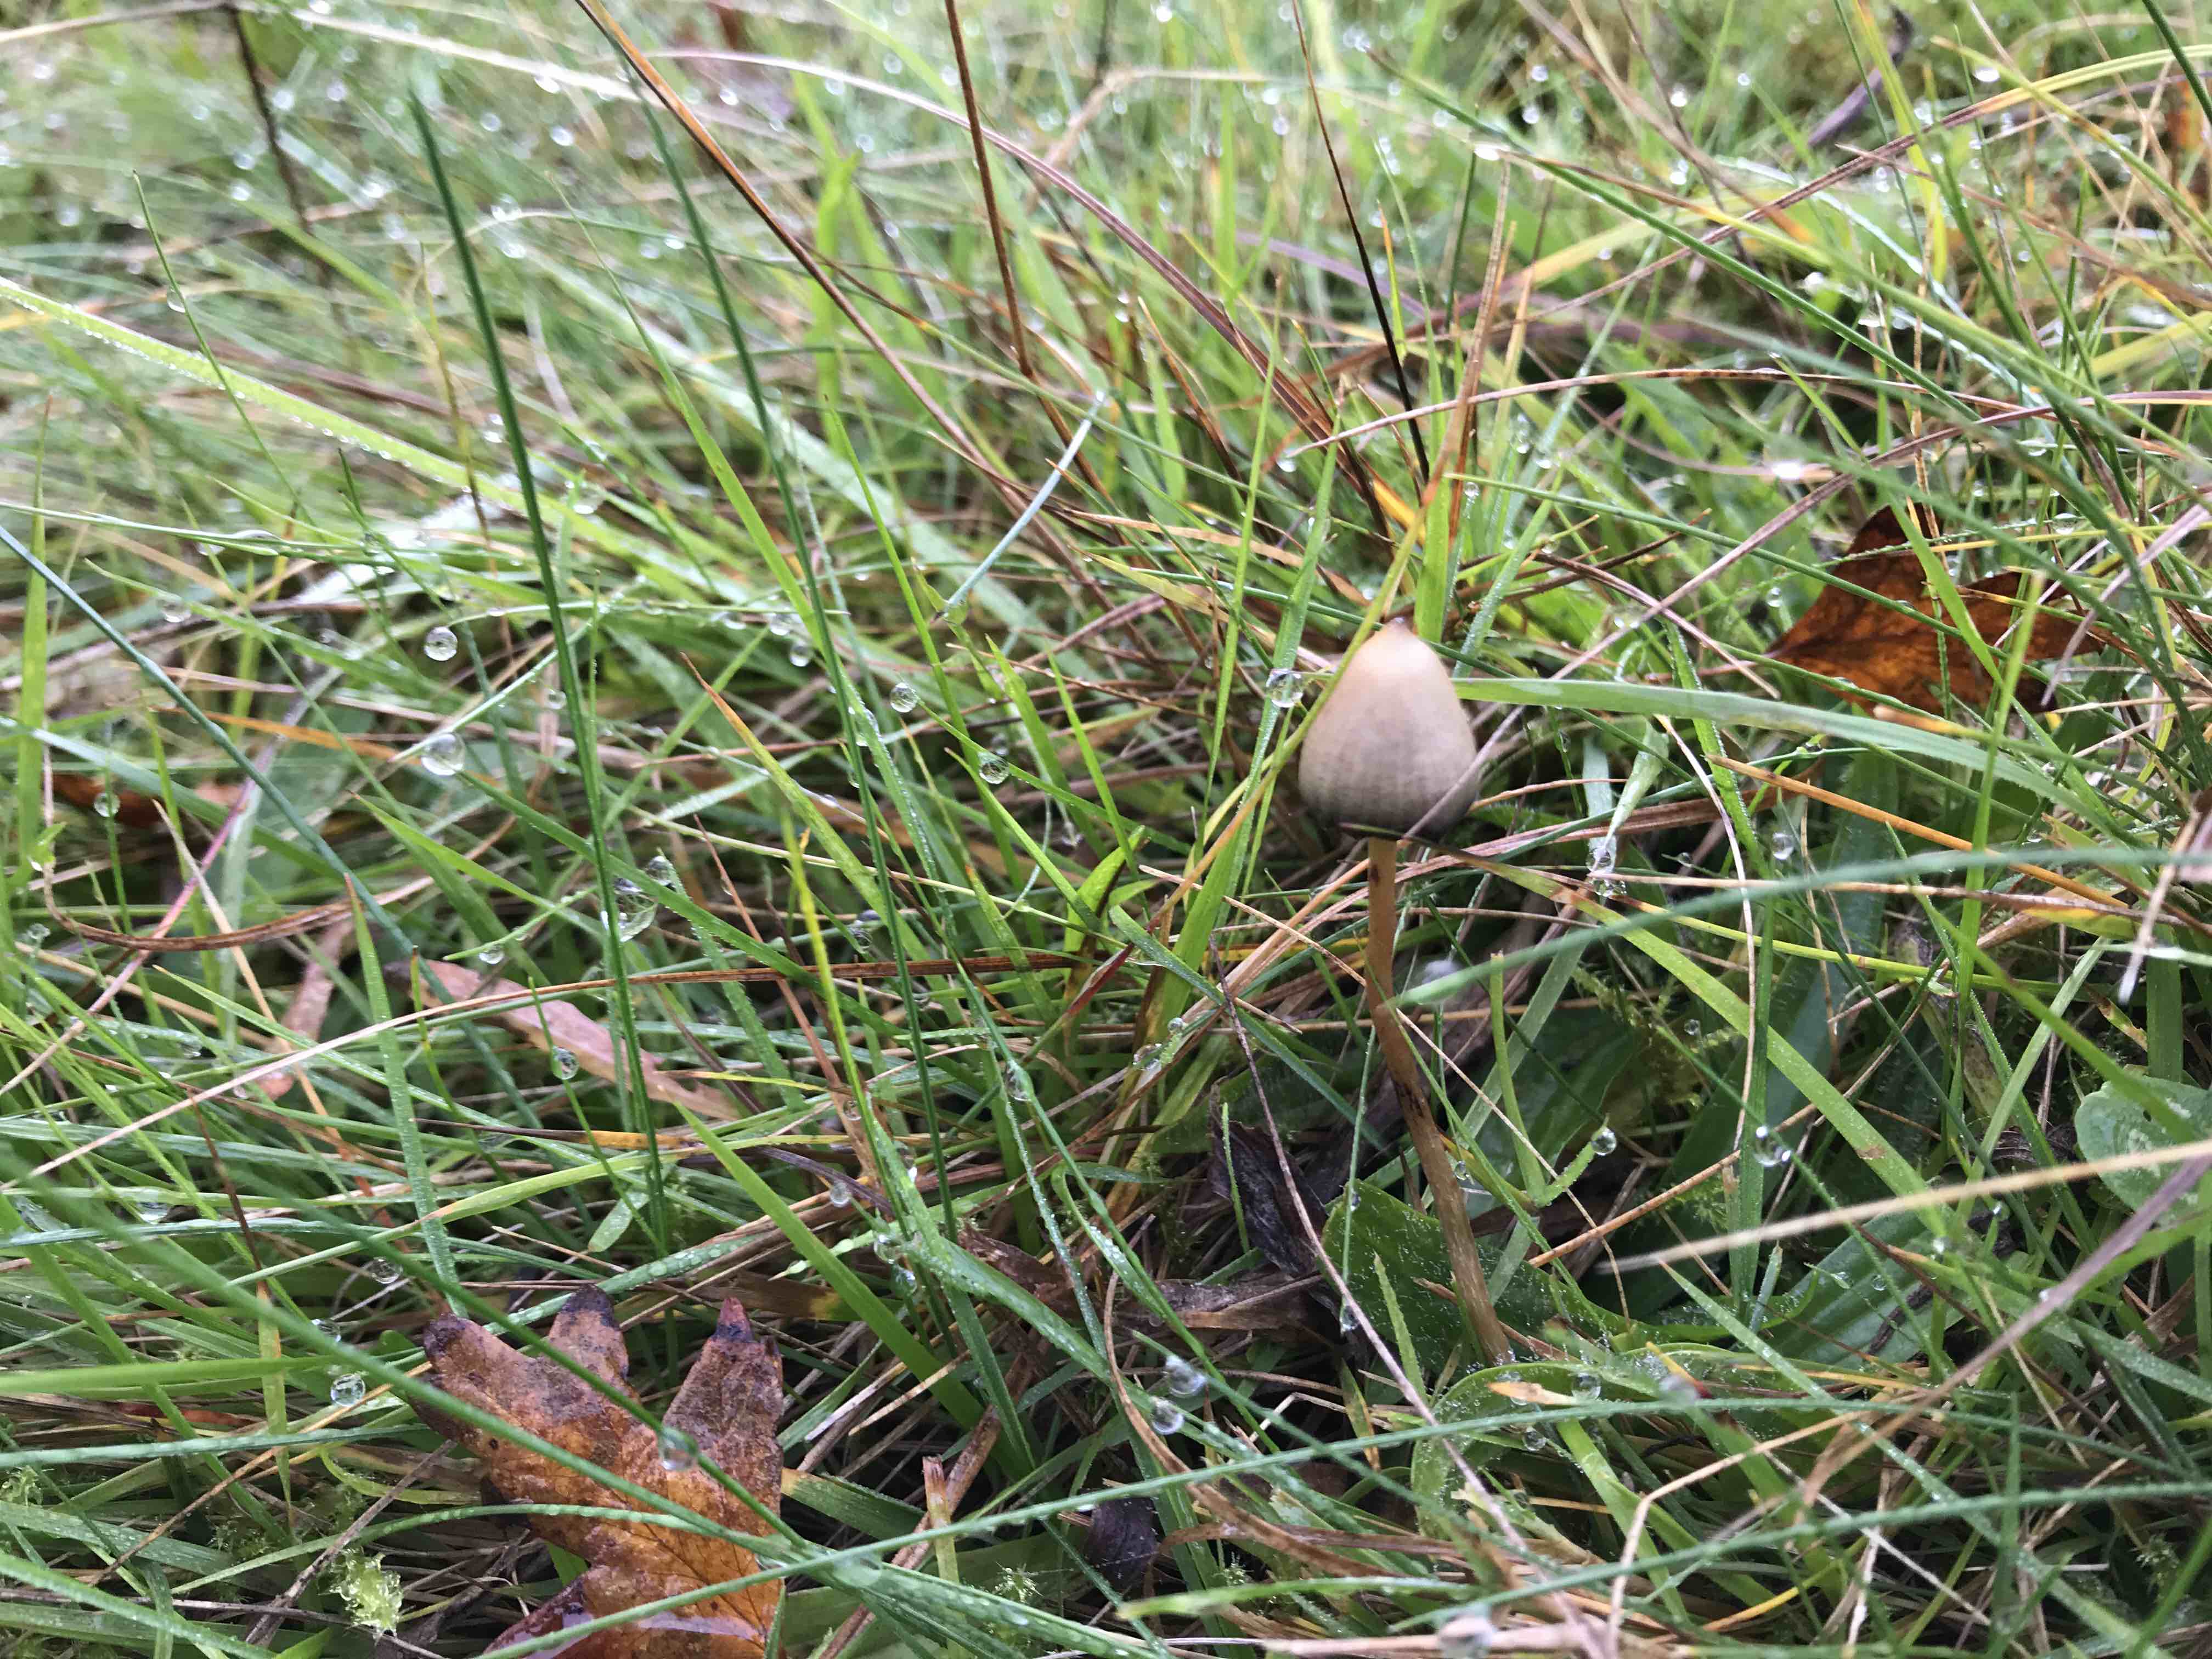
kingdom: Fungi
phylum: Basidiomycota
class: Agaricomycetes
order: Agaricales
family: Hymenogastraceae
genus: Psilocybe
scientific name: Psilocybe semilanceata
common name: spids nøgenhat
